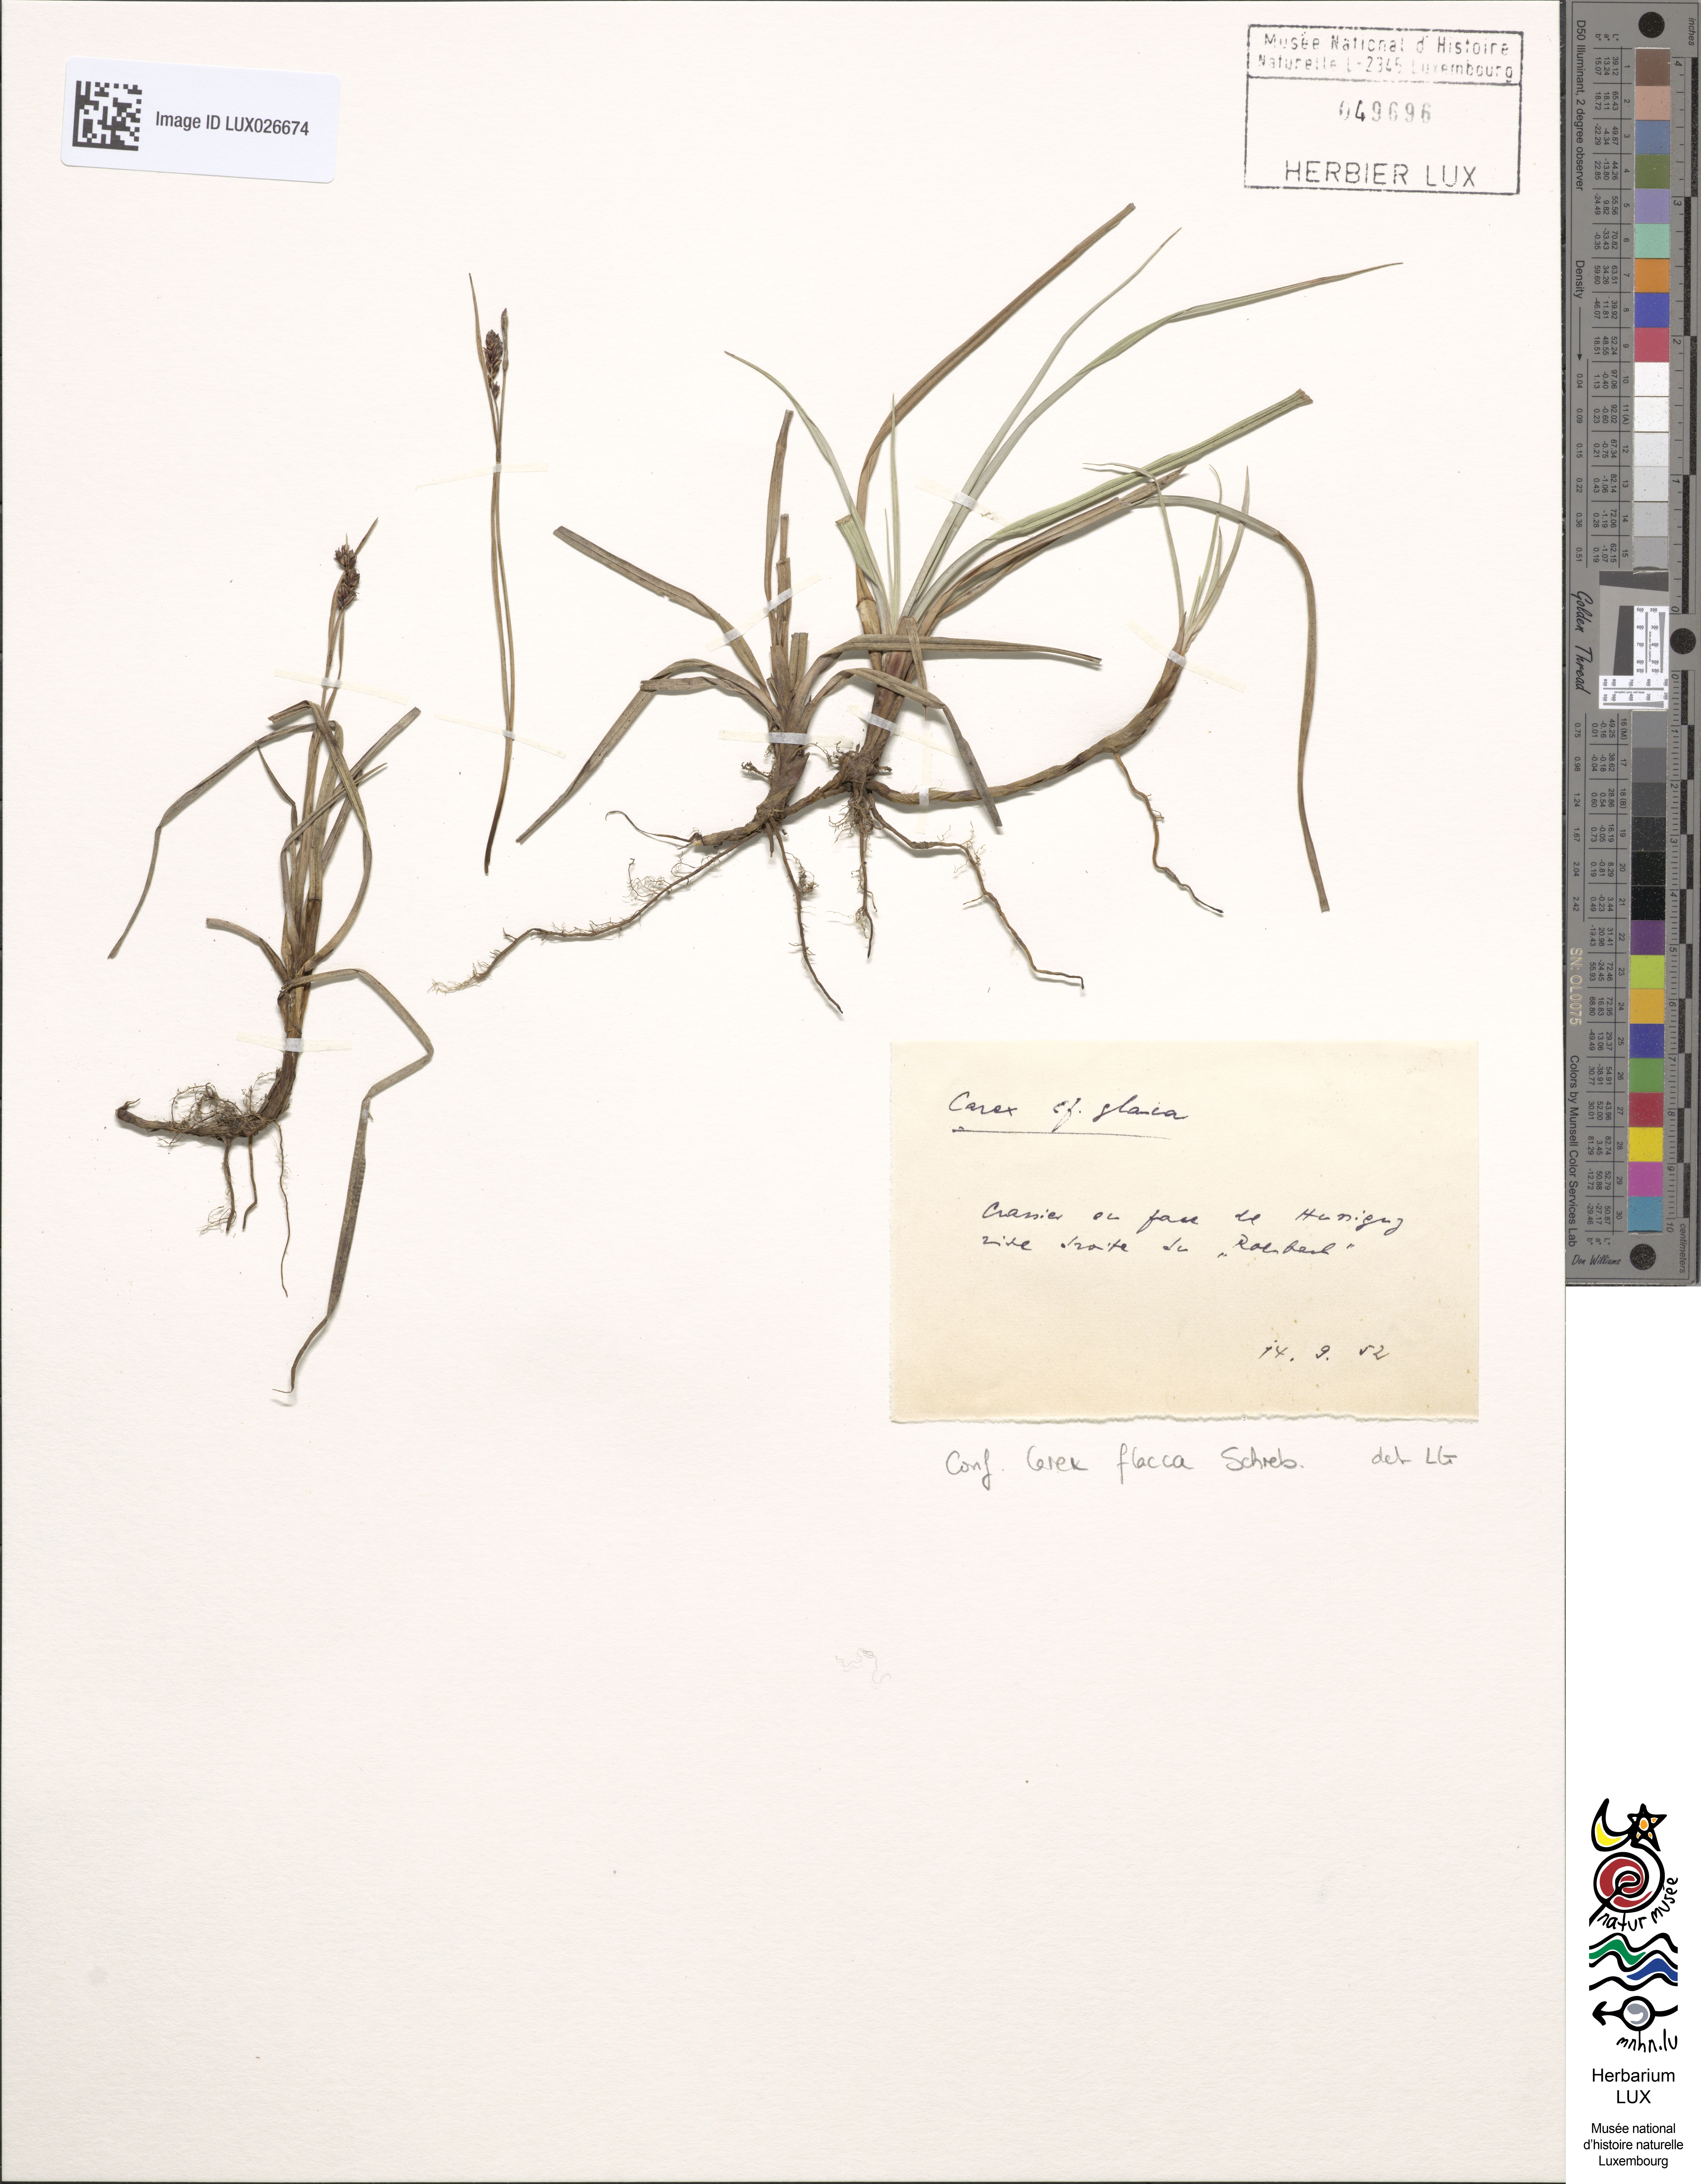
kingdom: Plantae
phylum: Tracheophyta
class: Liliopsida
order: Poales
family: Cyperaceae
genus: Carex
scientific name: Carex flacca
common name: Glaucous sedge
